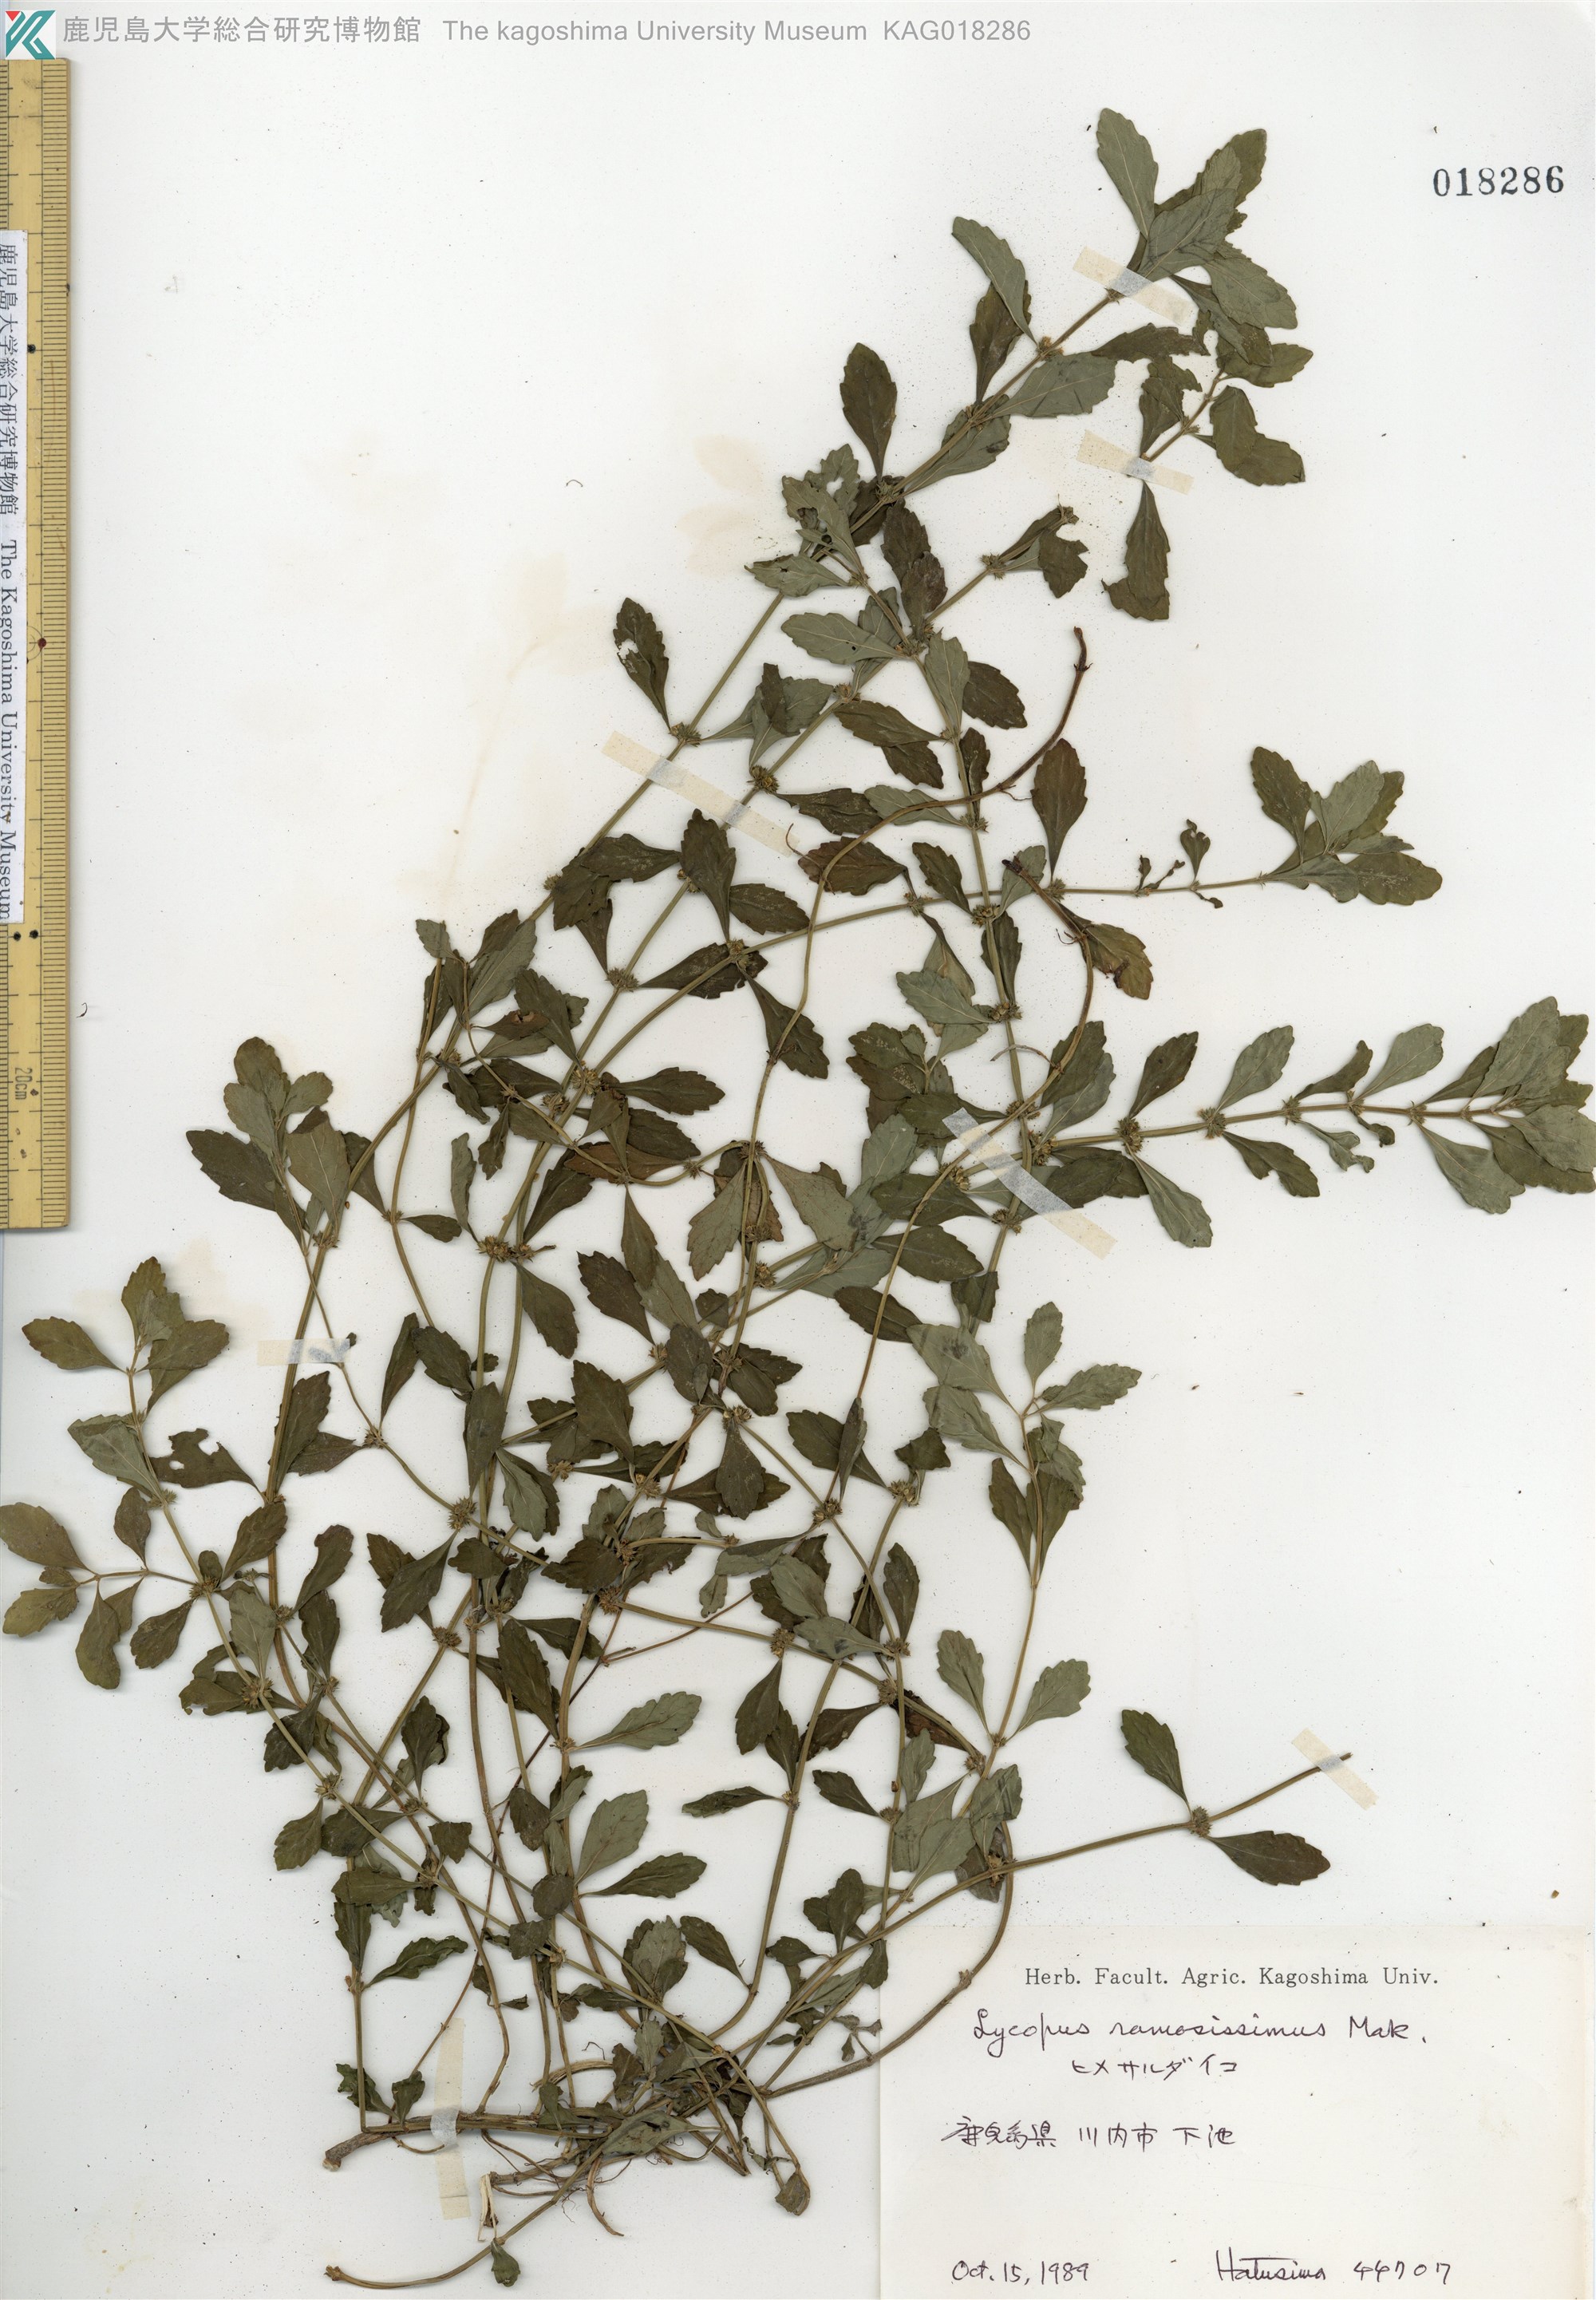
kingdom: Plantae
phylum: Tracheophyta
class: Magnoliopsida
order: Lamiales
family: Lamiaceae
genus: Lycopus
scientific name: Lycopus cavaleriei
